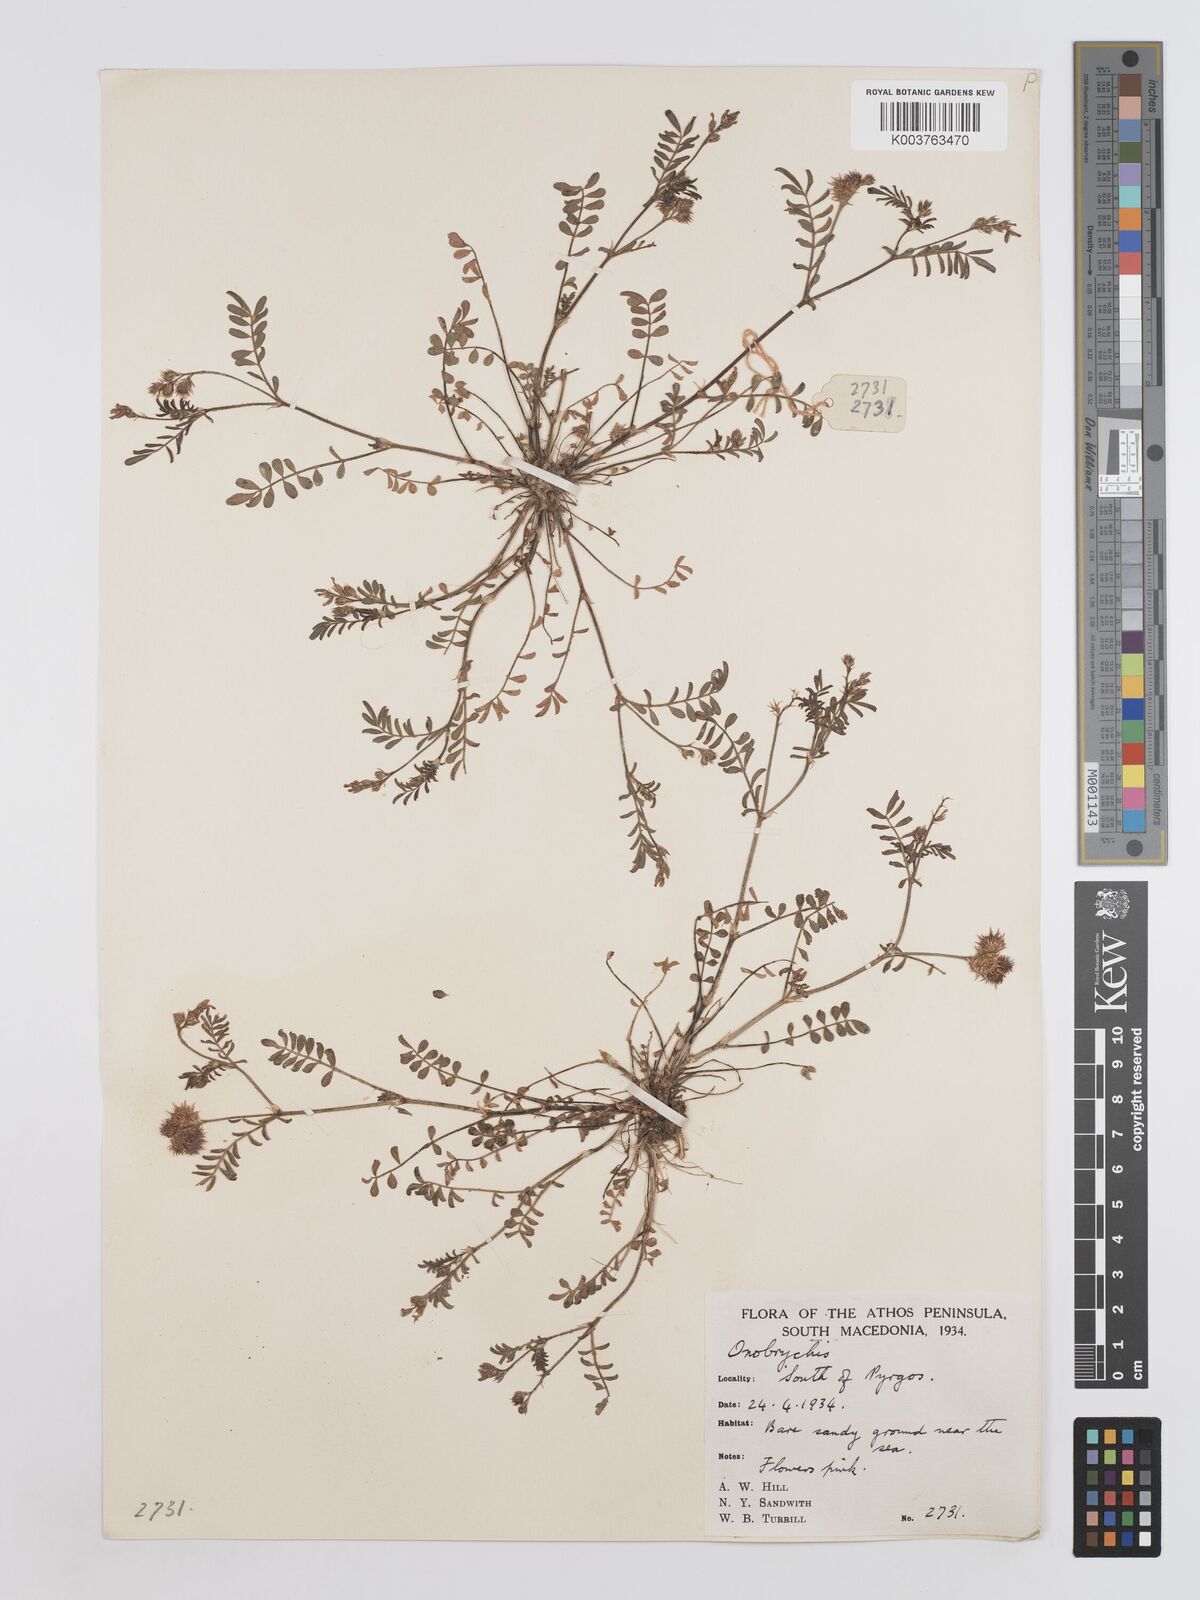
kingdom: Plantae
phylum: Tracheophyta
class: Magnoliopsida
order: Fabales
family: Fabaceae
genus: Onobrychis
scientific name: Onobrychis caput-galli
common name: Cockscomb sainfoin
